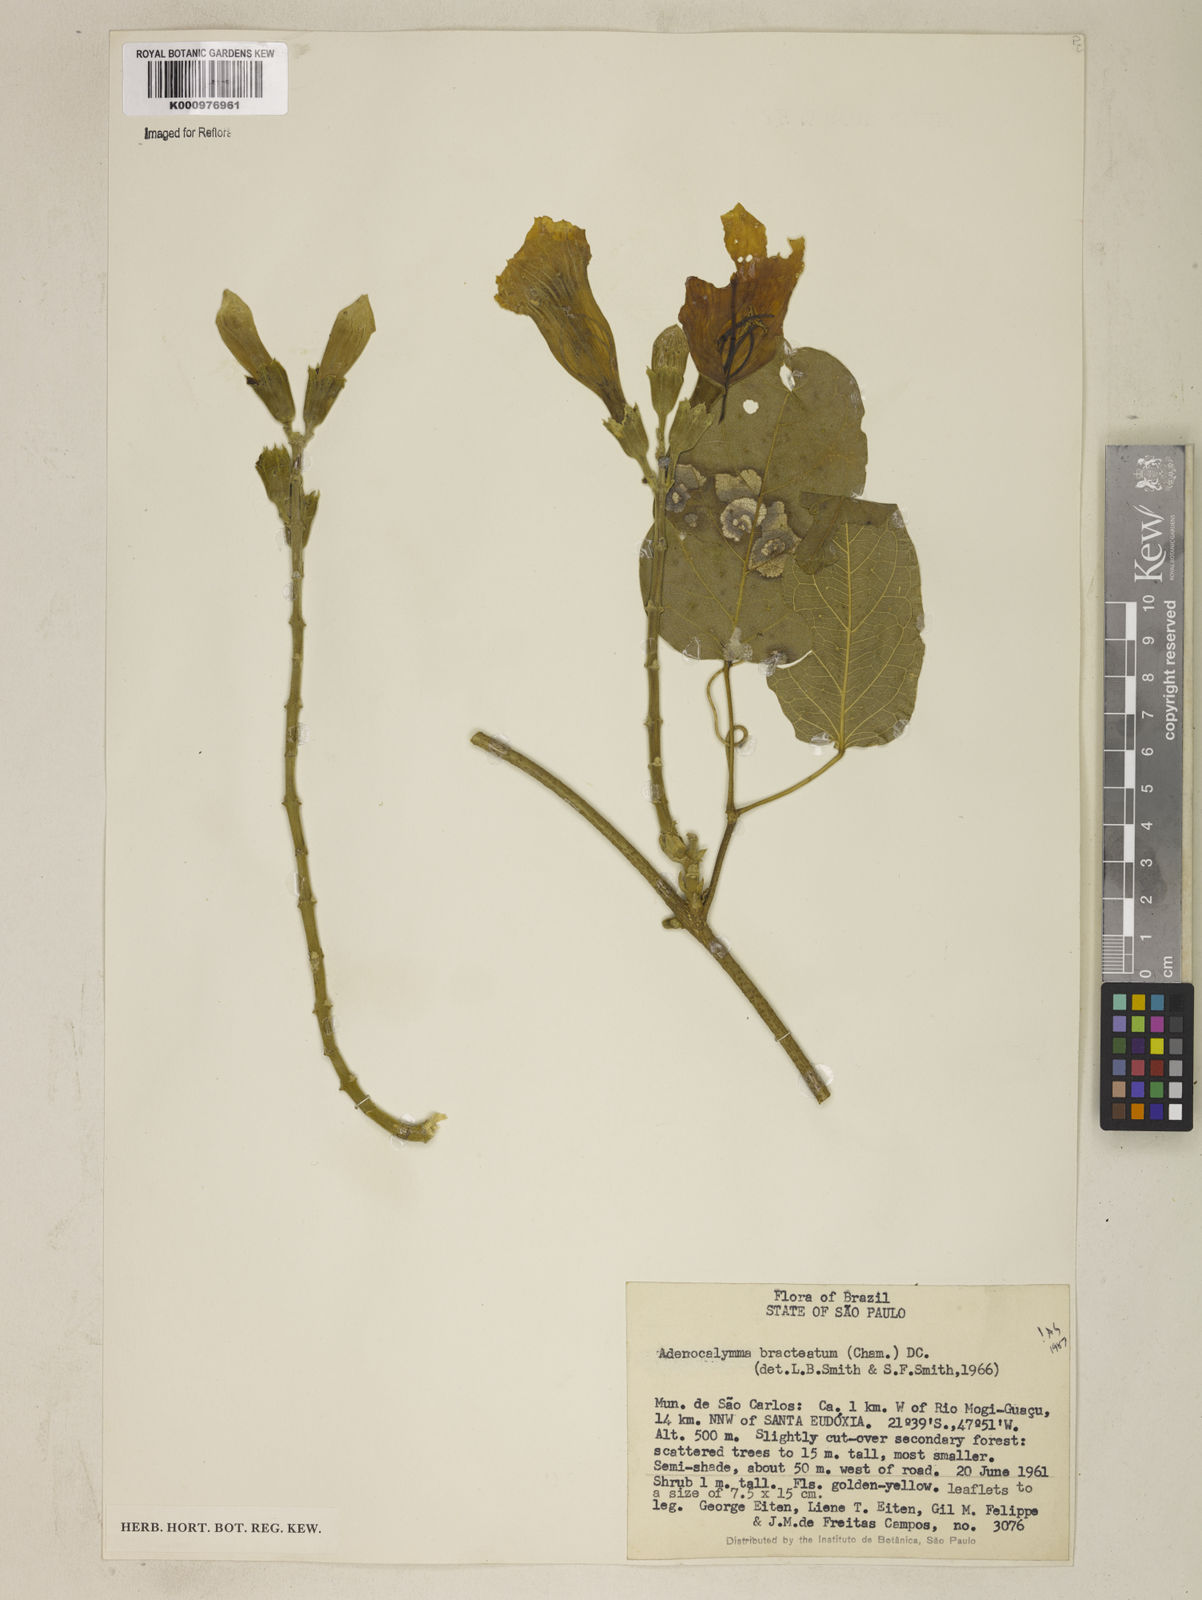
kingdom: Plantae
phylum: Tracheophyta
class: Magnoliopsida
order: Lamiales
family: Bignoniaceae
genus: Adenocalymma
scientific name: Adenocalymma bracteatum
